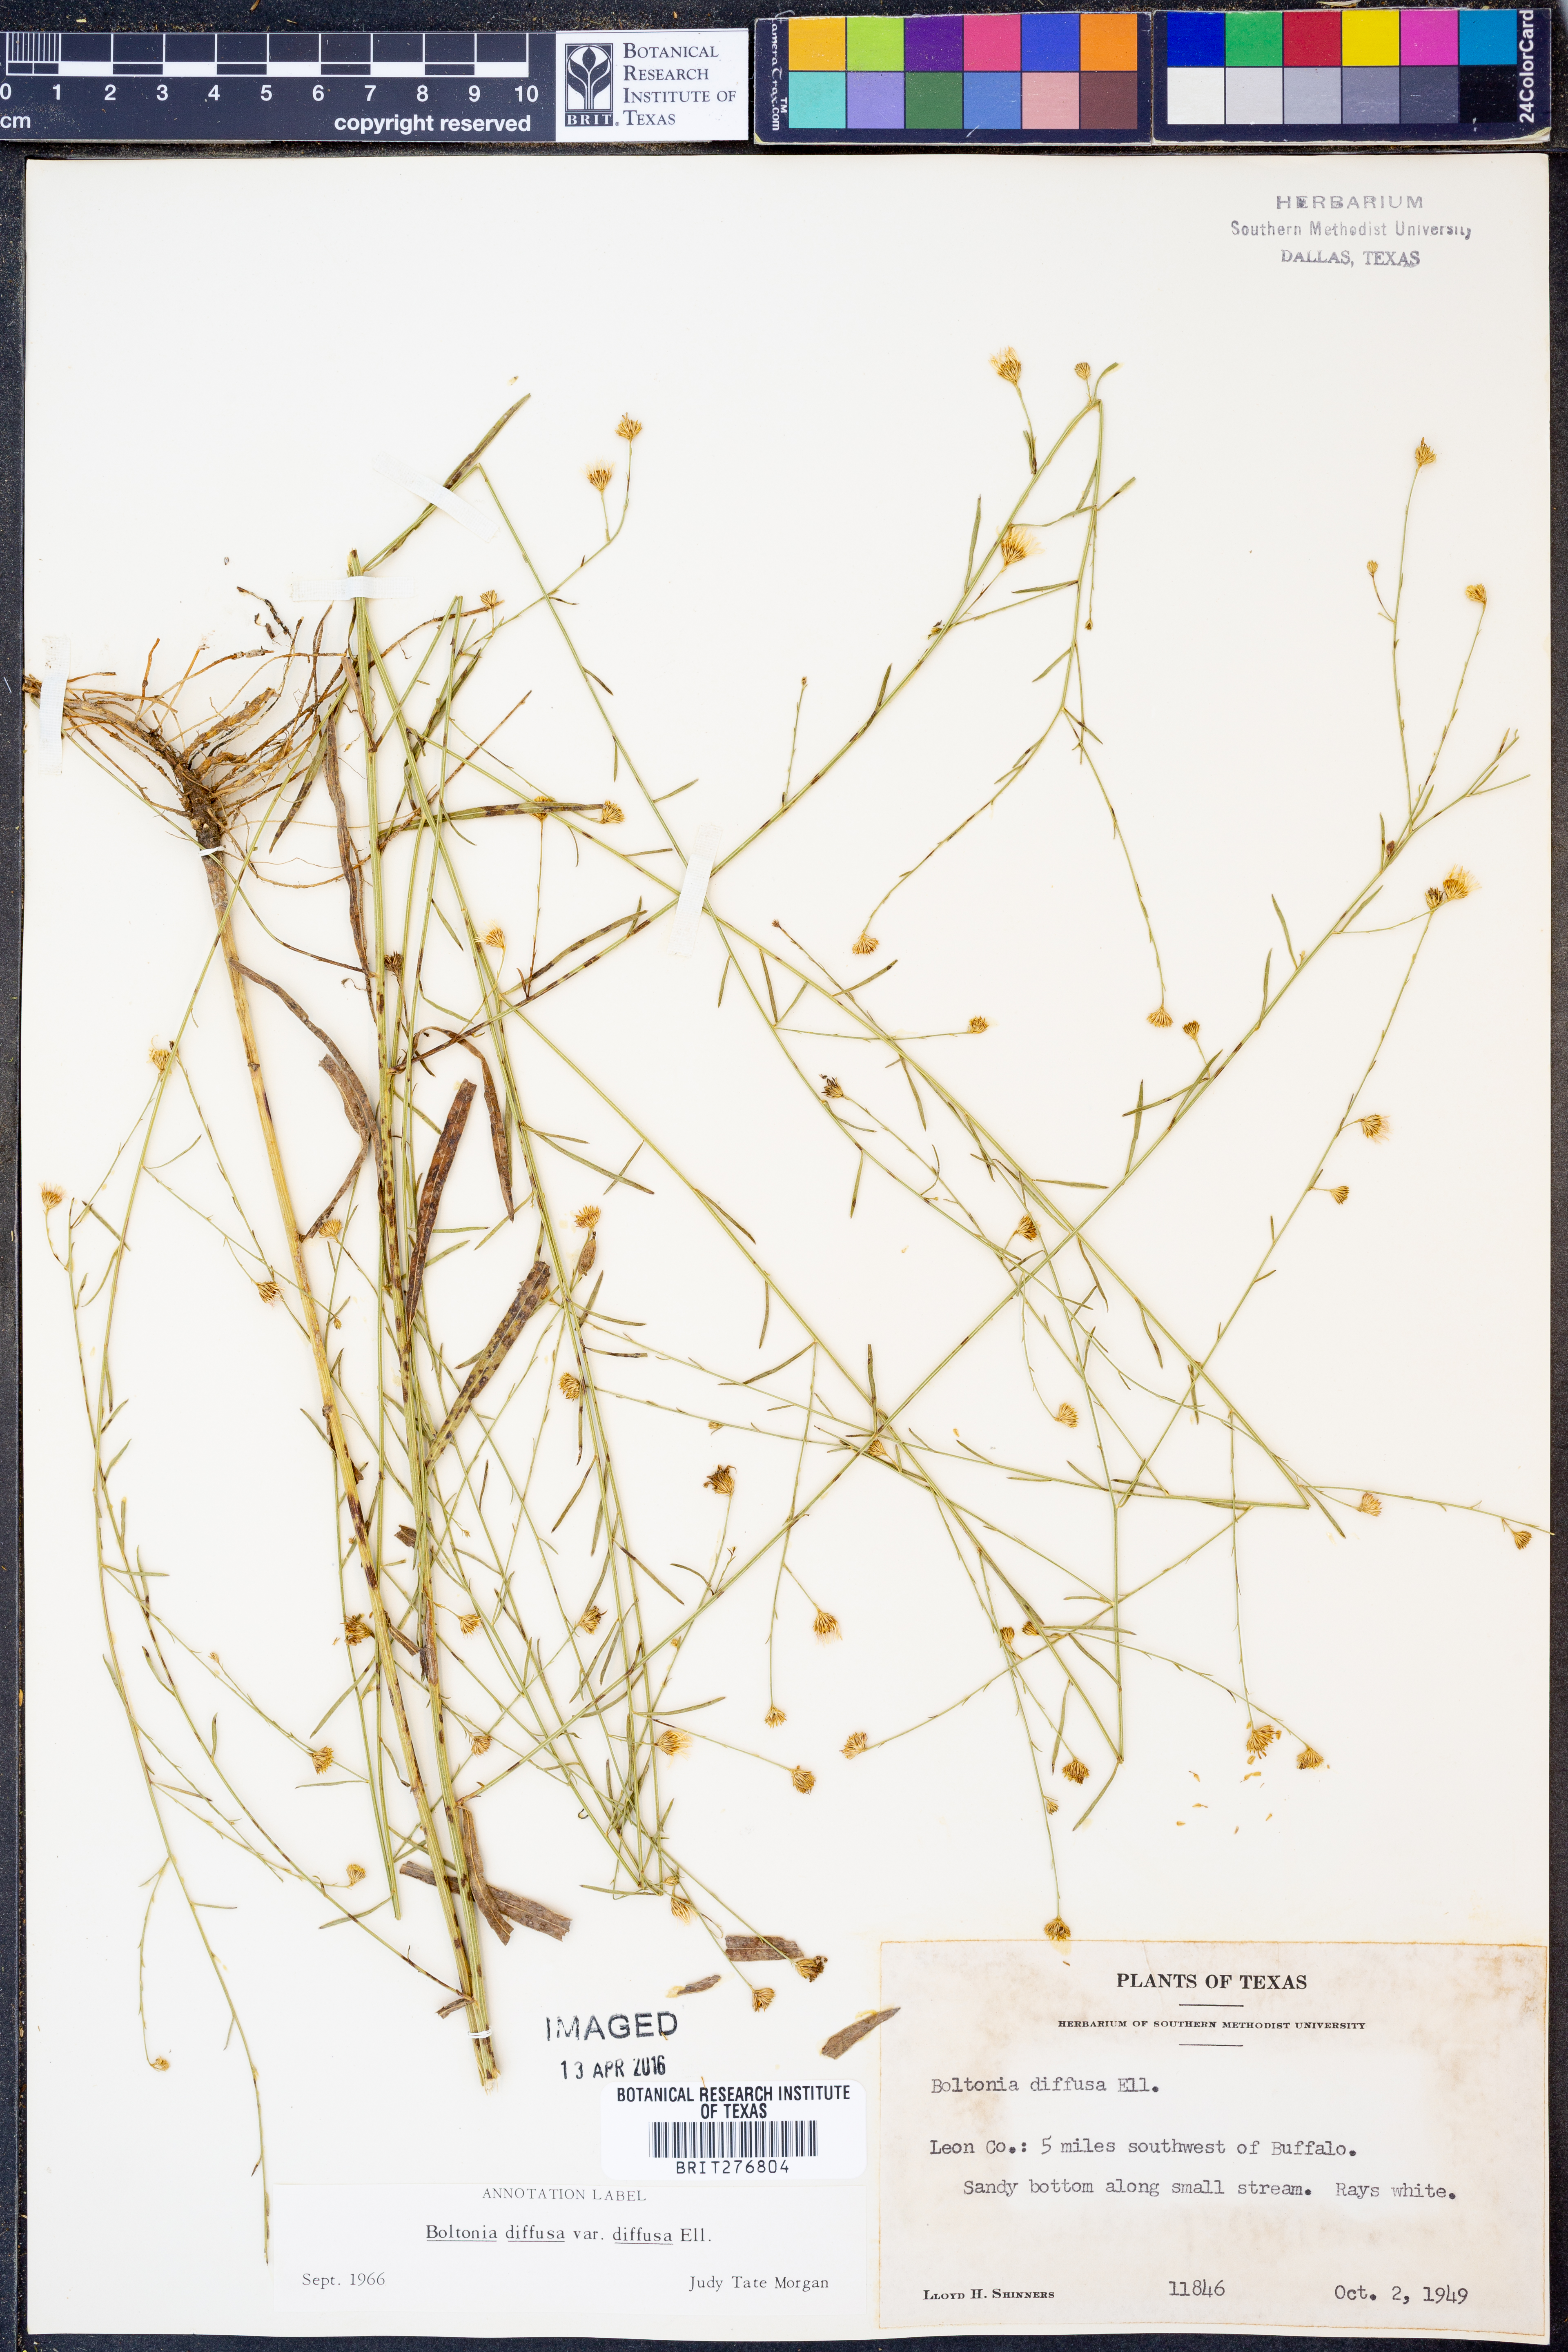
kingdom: Plantae
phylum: Tracheophyta
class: Magnoliopsida
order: Asterales
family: Asteraceae
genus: Boltonia
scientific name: Boltonia diffusa
